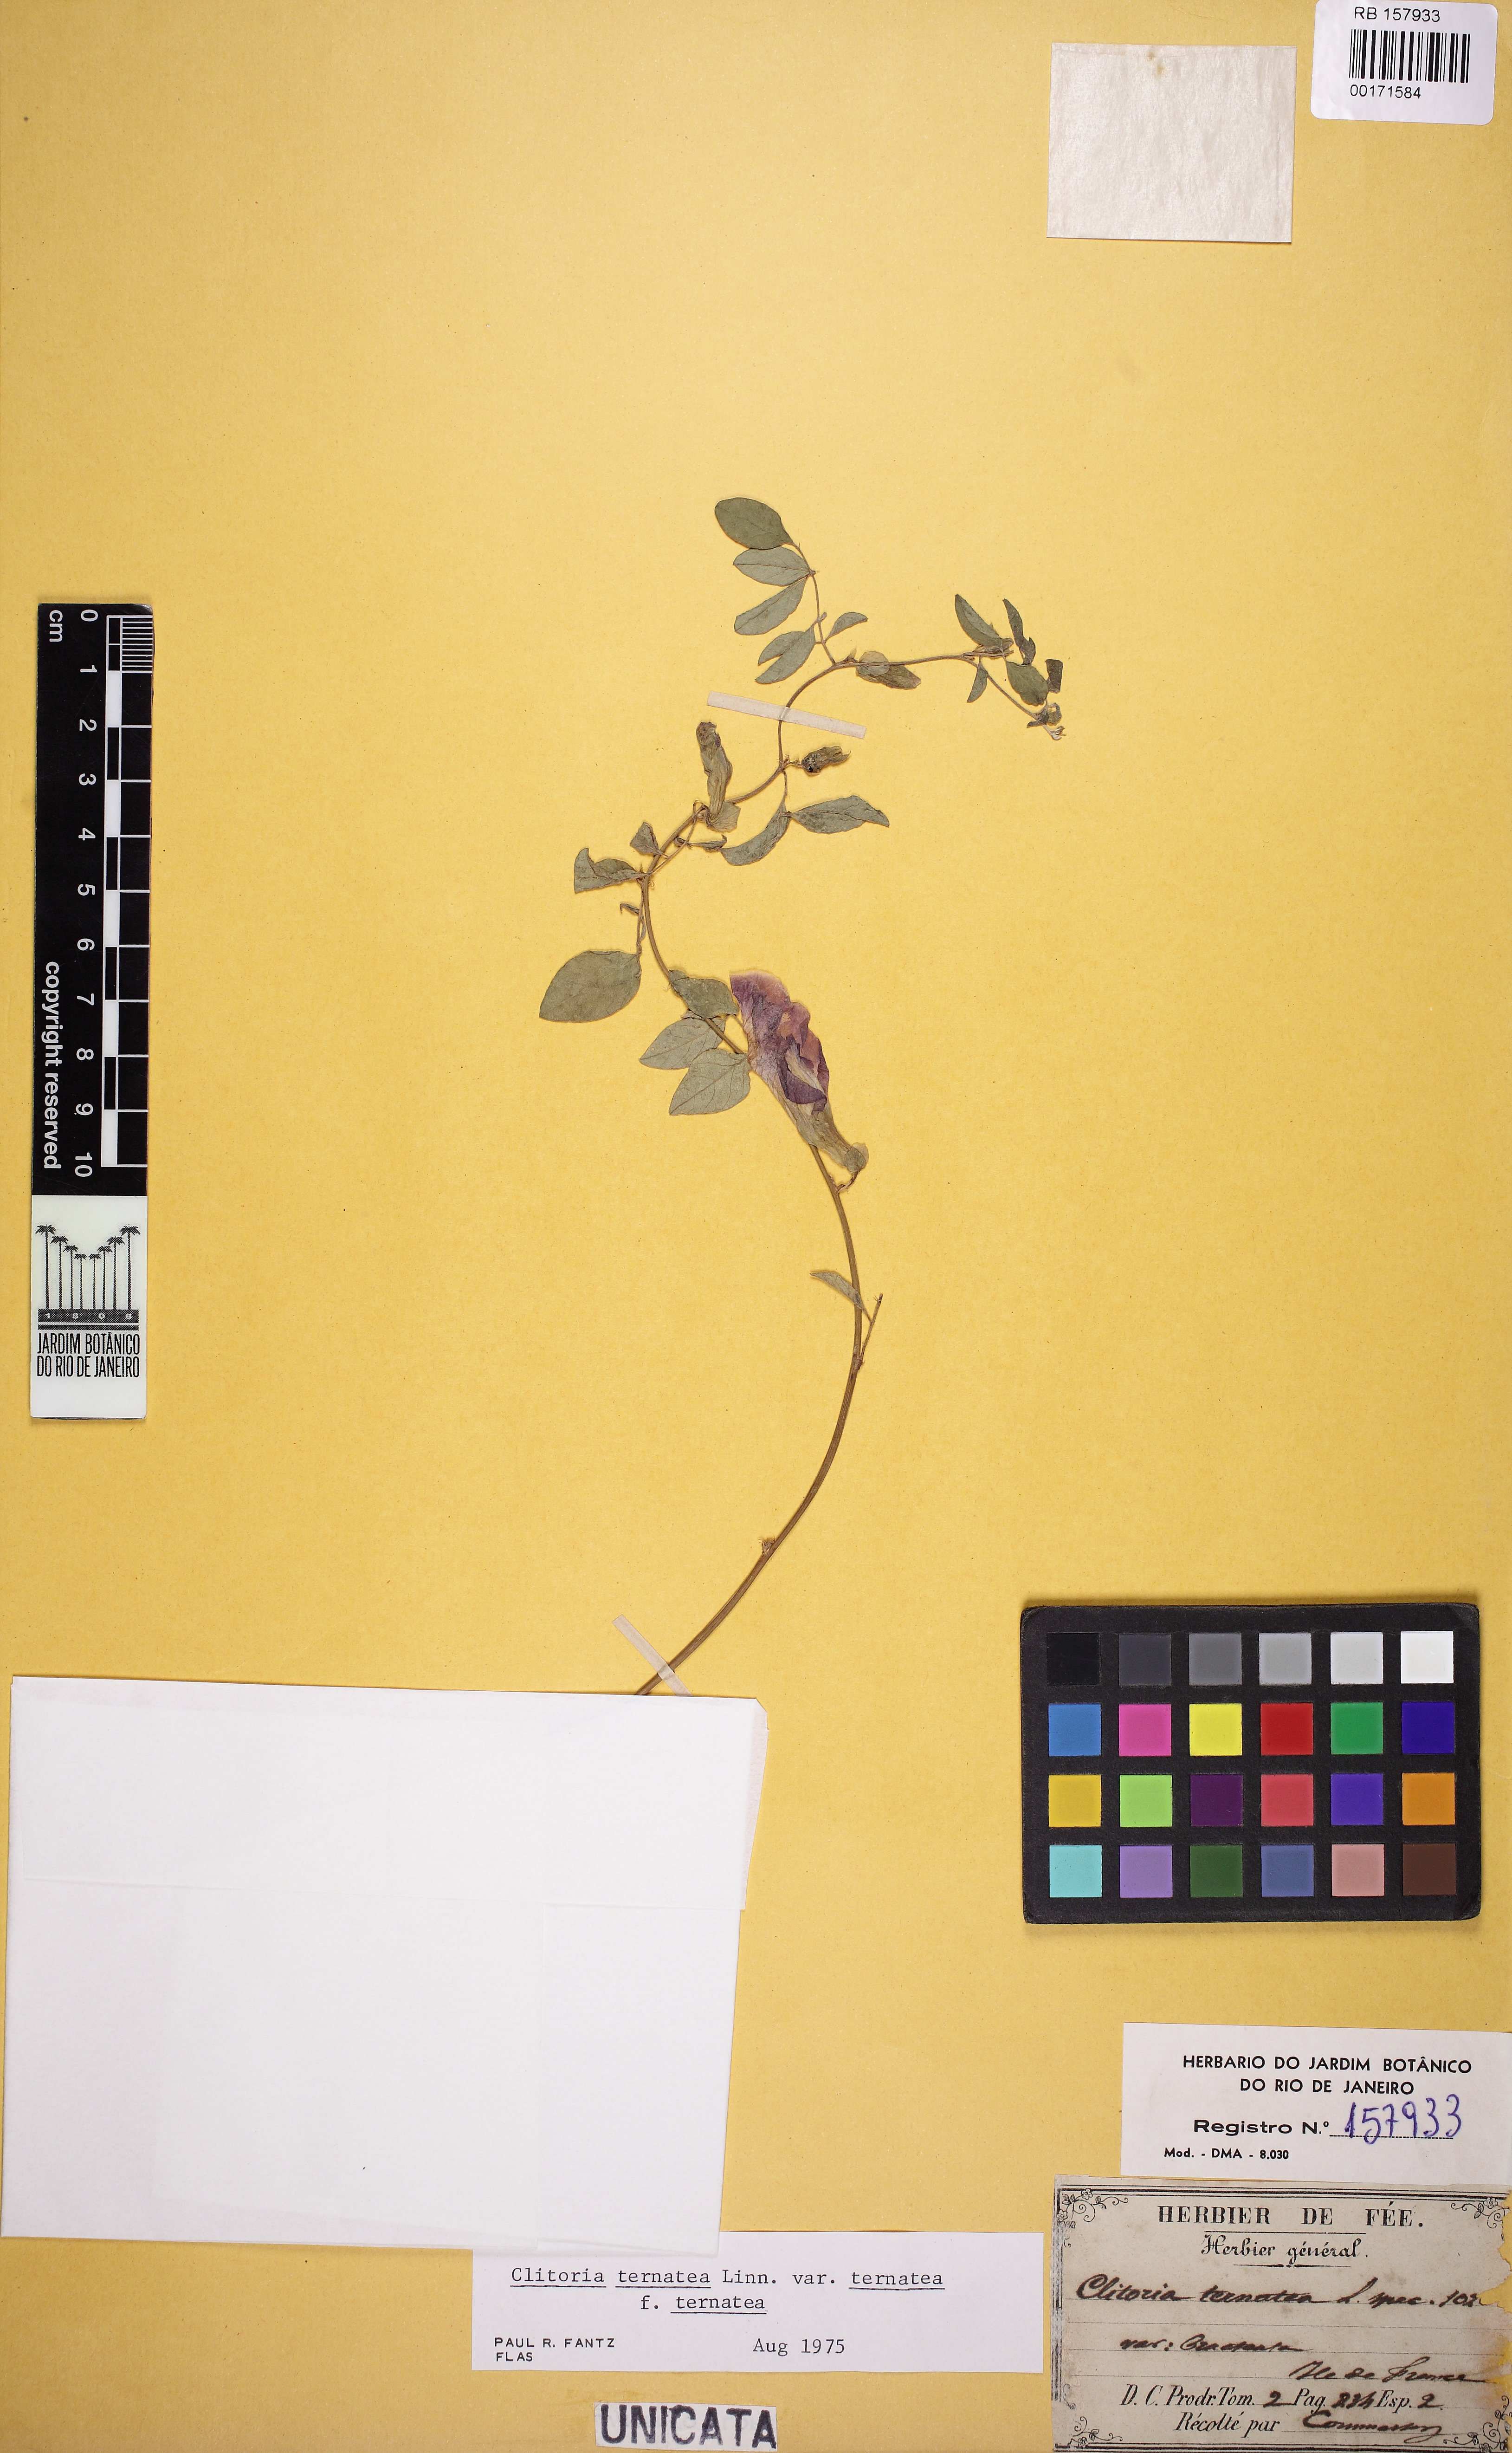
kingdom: Plantae
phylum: Tracheophyta
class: Magnoliopsida
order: Fabales
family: Fabaceae
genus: Clitoria
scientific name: Clitoria ternatea
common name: Asian pigeonwings
